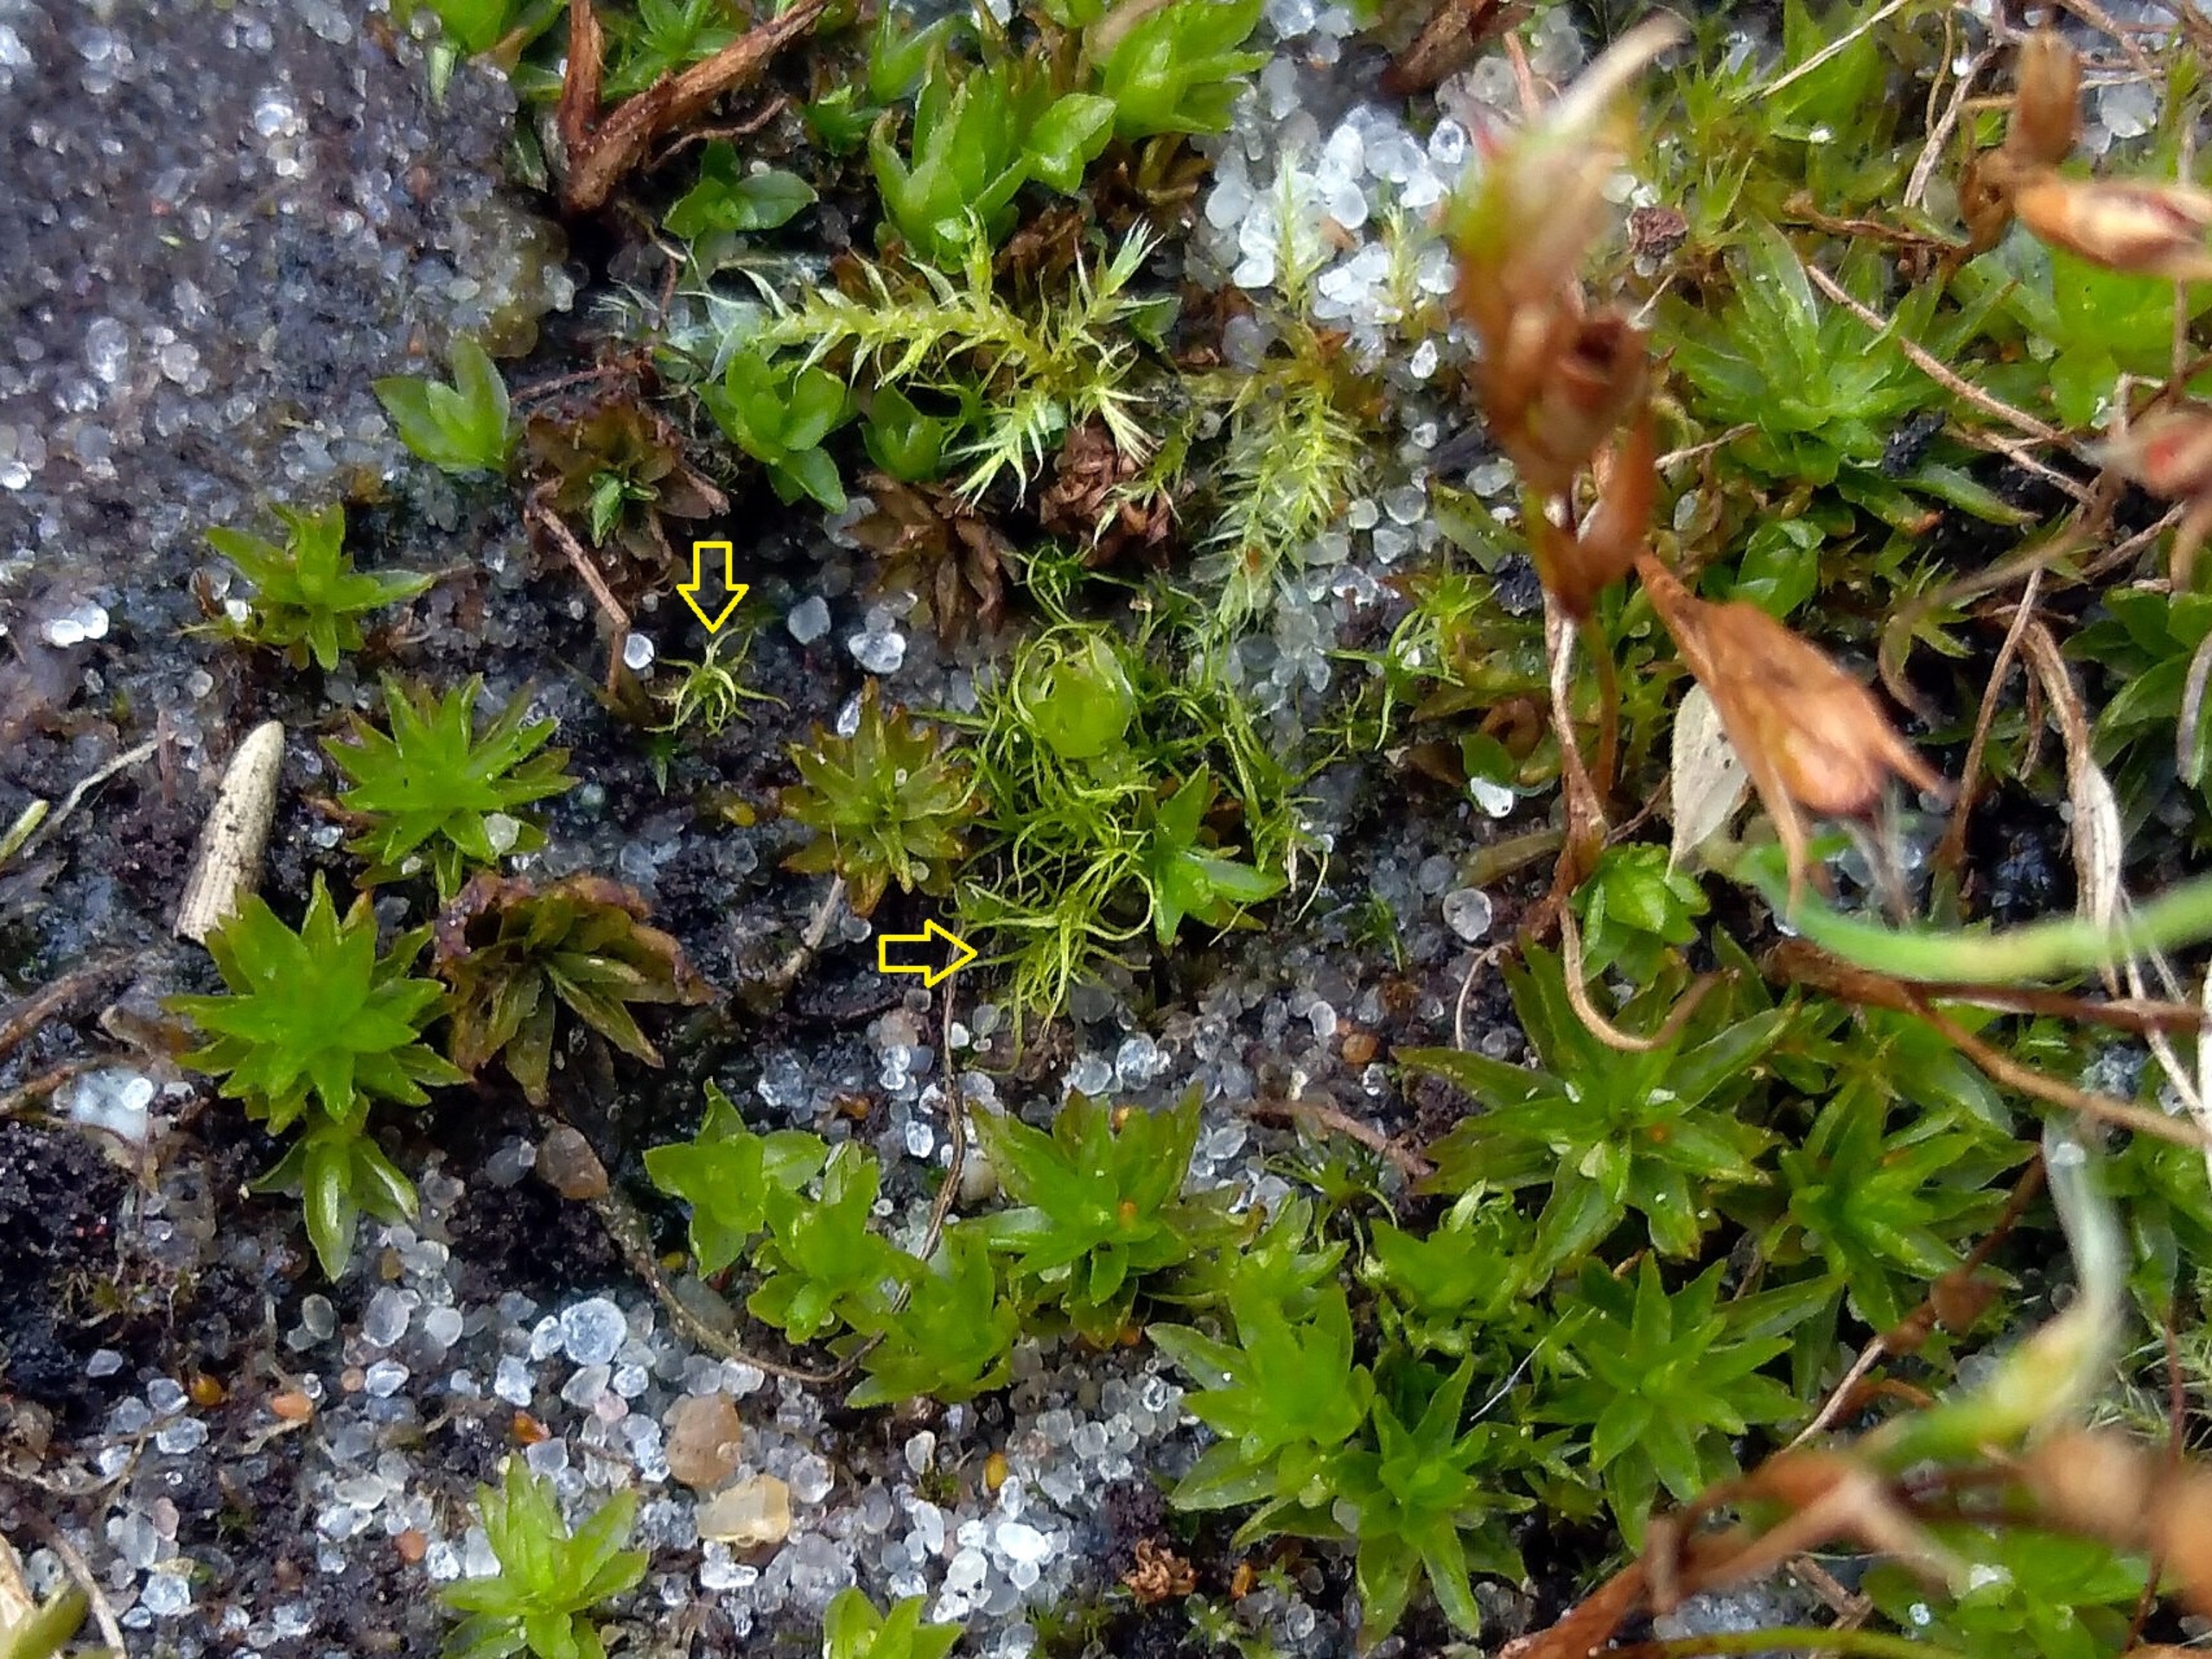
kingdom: Plantae
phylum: Bryophyta
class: Bryopsida
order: Dicranales
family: Ditrichaceae
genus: Trichodon
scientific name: Trichodon cylindricus
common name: Udspærret hårtand
